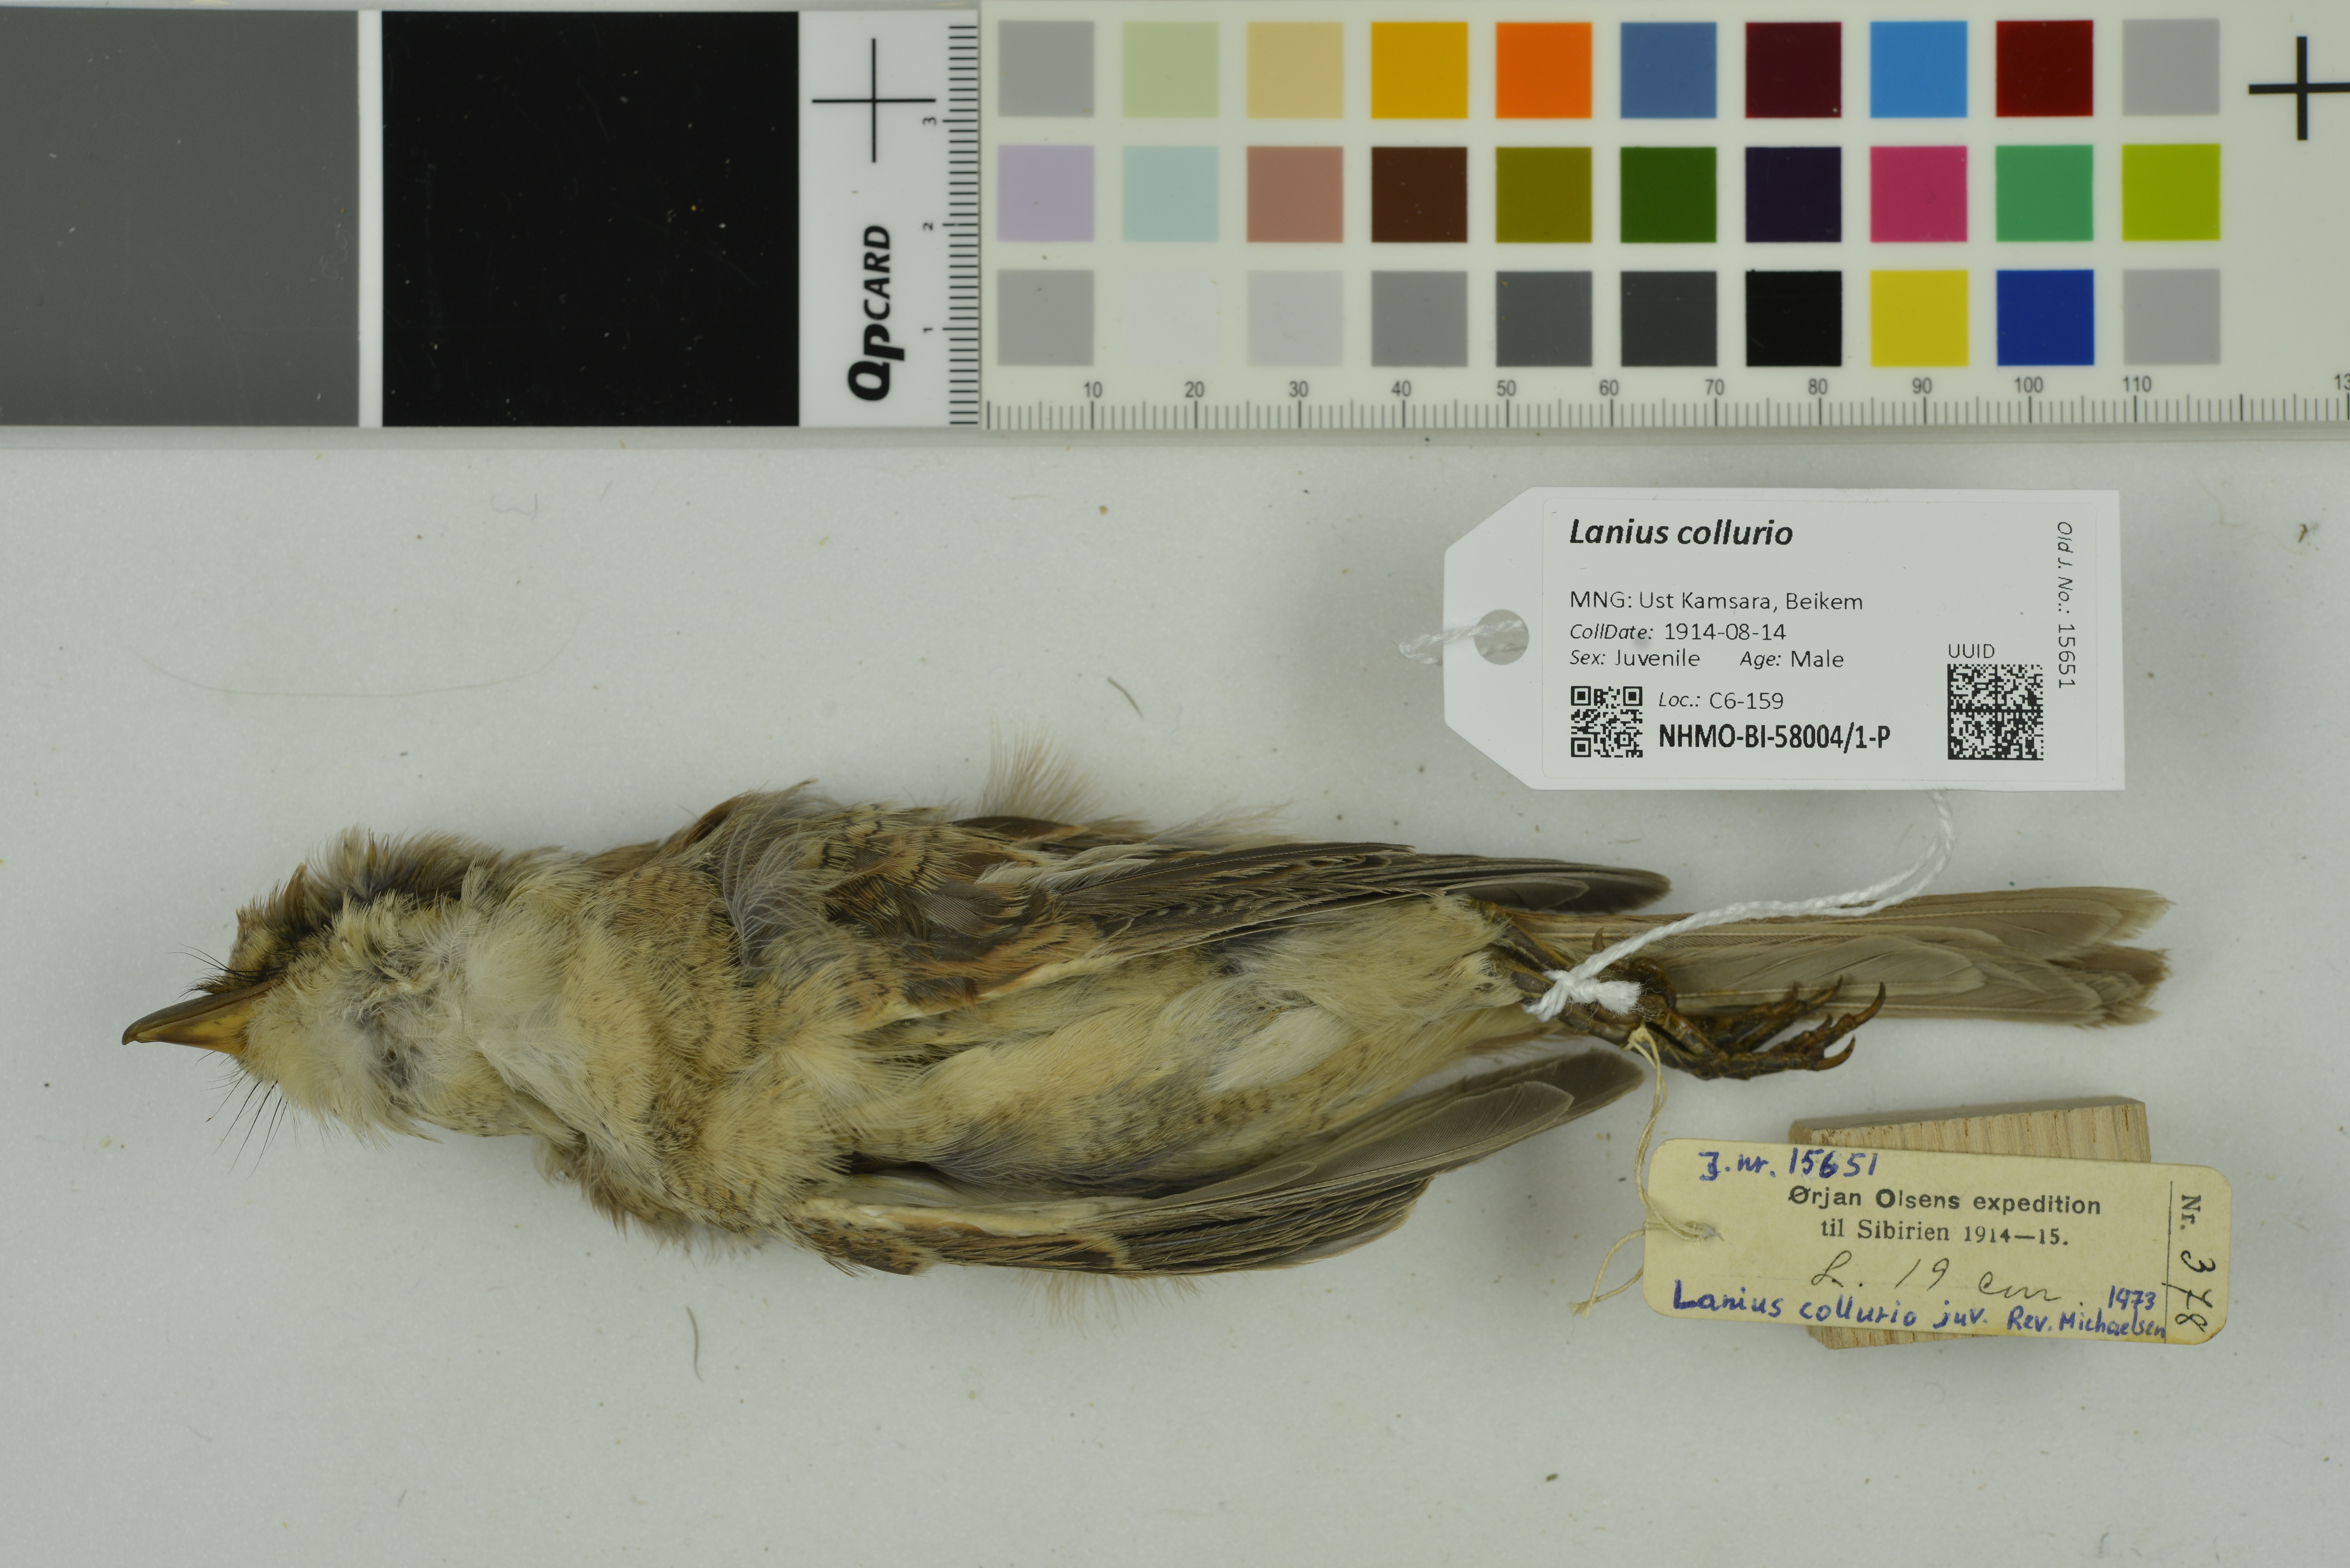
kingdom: Animalia
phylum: Chordata
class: Aves
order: Passeriformes
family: Laniidae
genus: Lanius
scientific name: Lanius collurio
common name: Red-backed shrike
